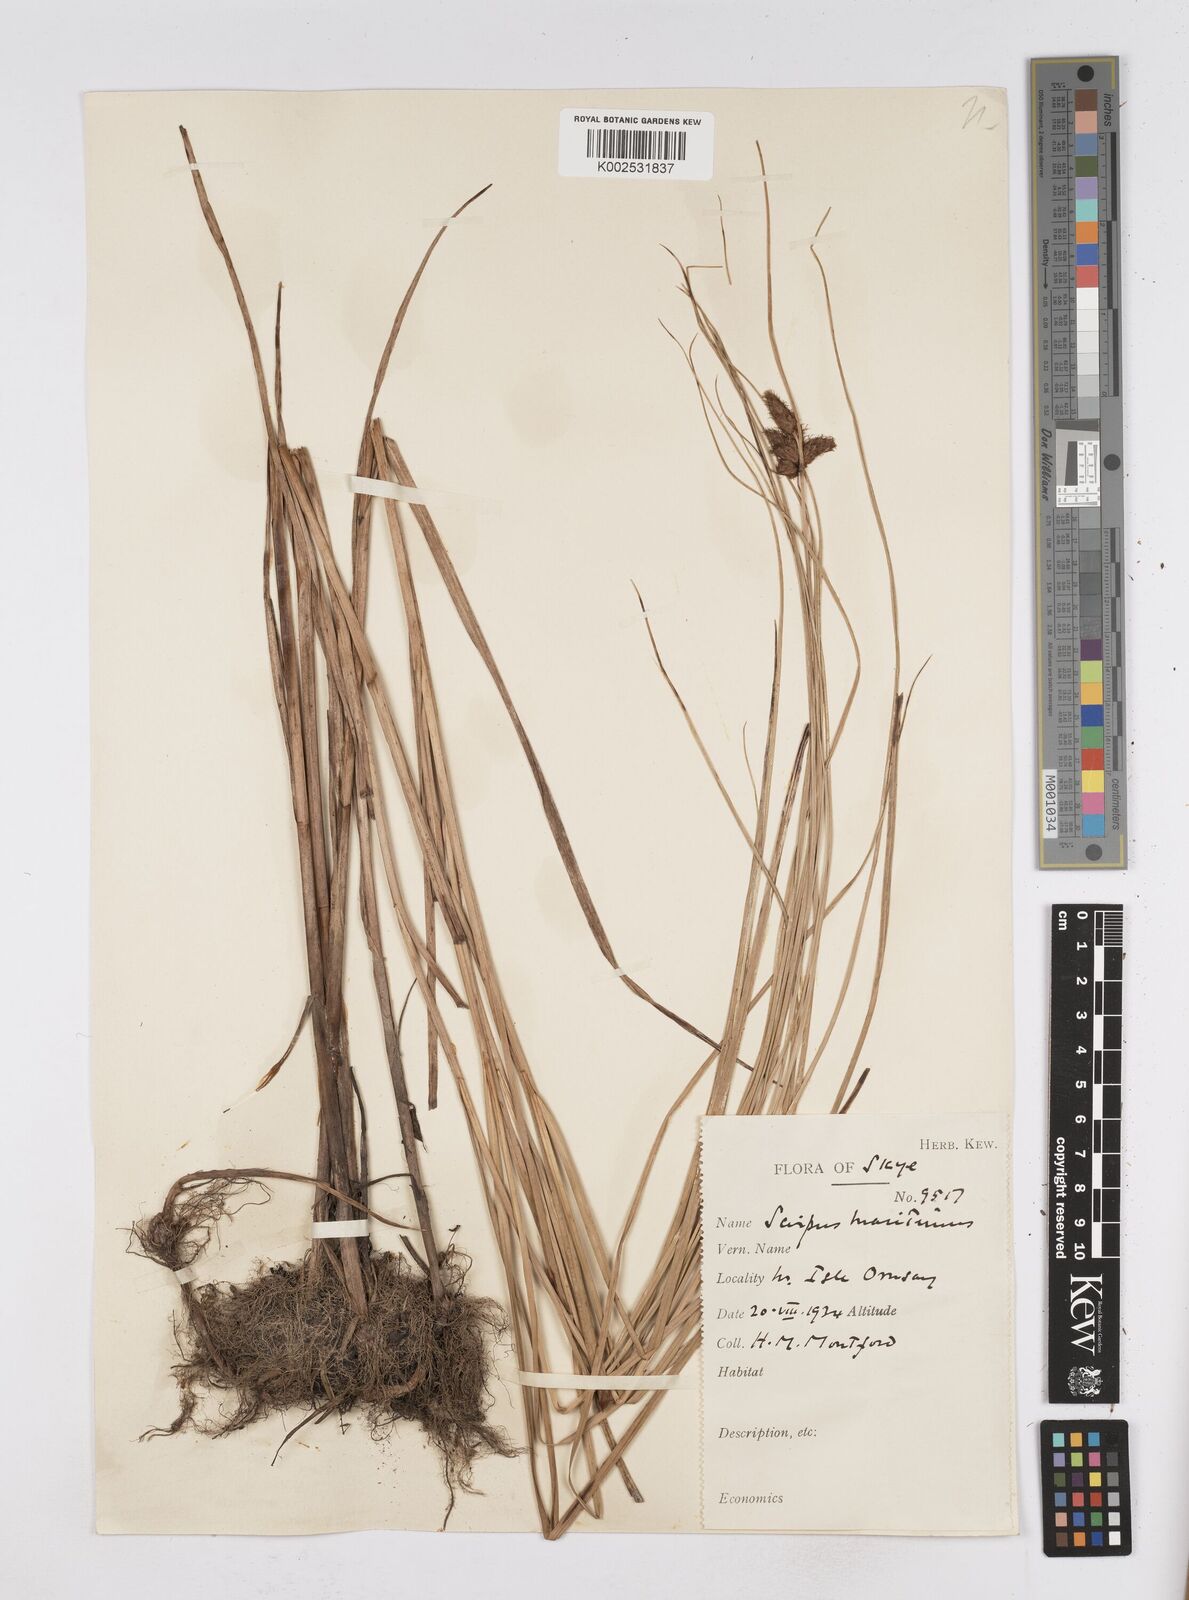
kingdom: Plantae
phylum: Tracheophyta
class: Liliopsida
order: Poales
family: Cyperaceae
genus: Bolboschoenus
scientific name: Bolboschoenus maritimus
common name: Sea club-rush
